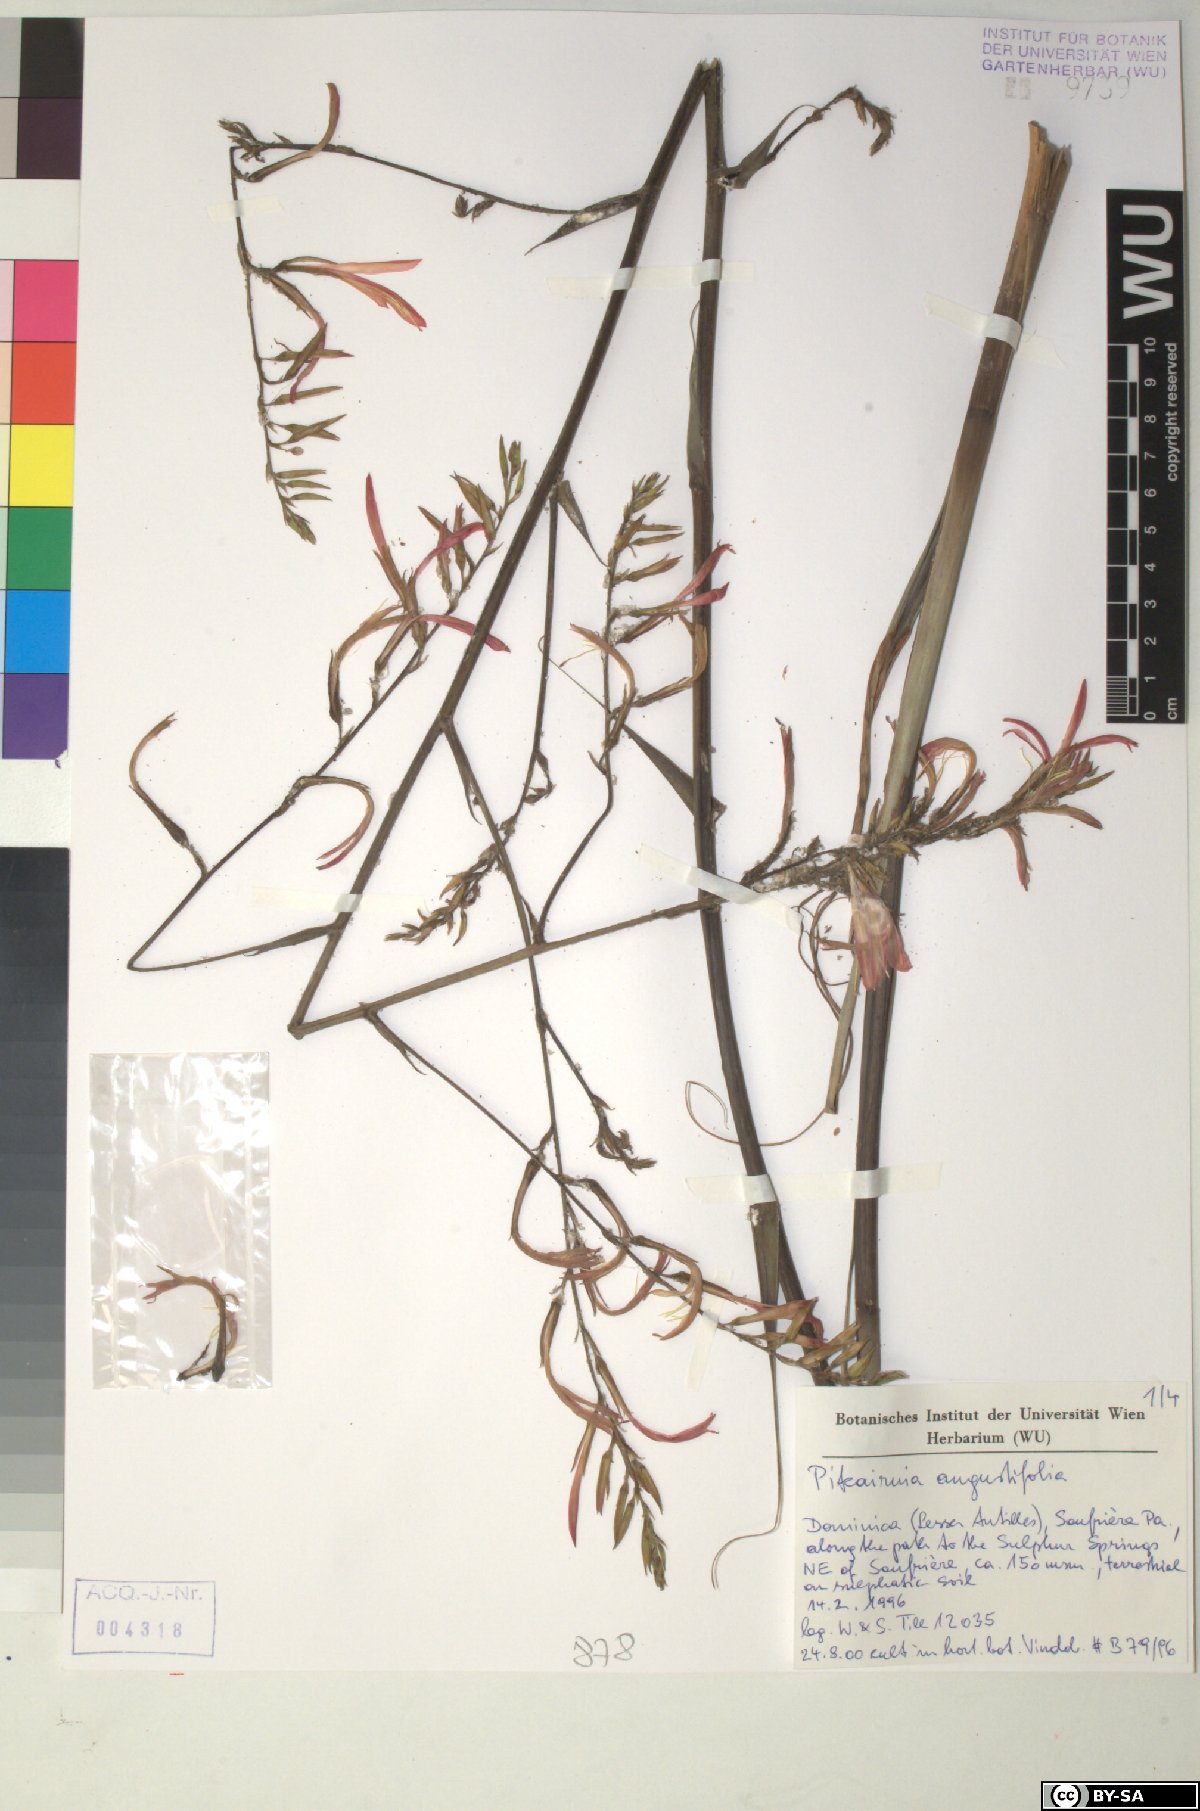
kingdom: Plantae
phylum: Tracheophyta
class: Liliopsida
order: Poales
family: Bromeliaceae
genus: Pitcairnia
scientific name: Pitcairnia angustifolia
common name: Clapper
